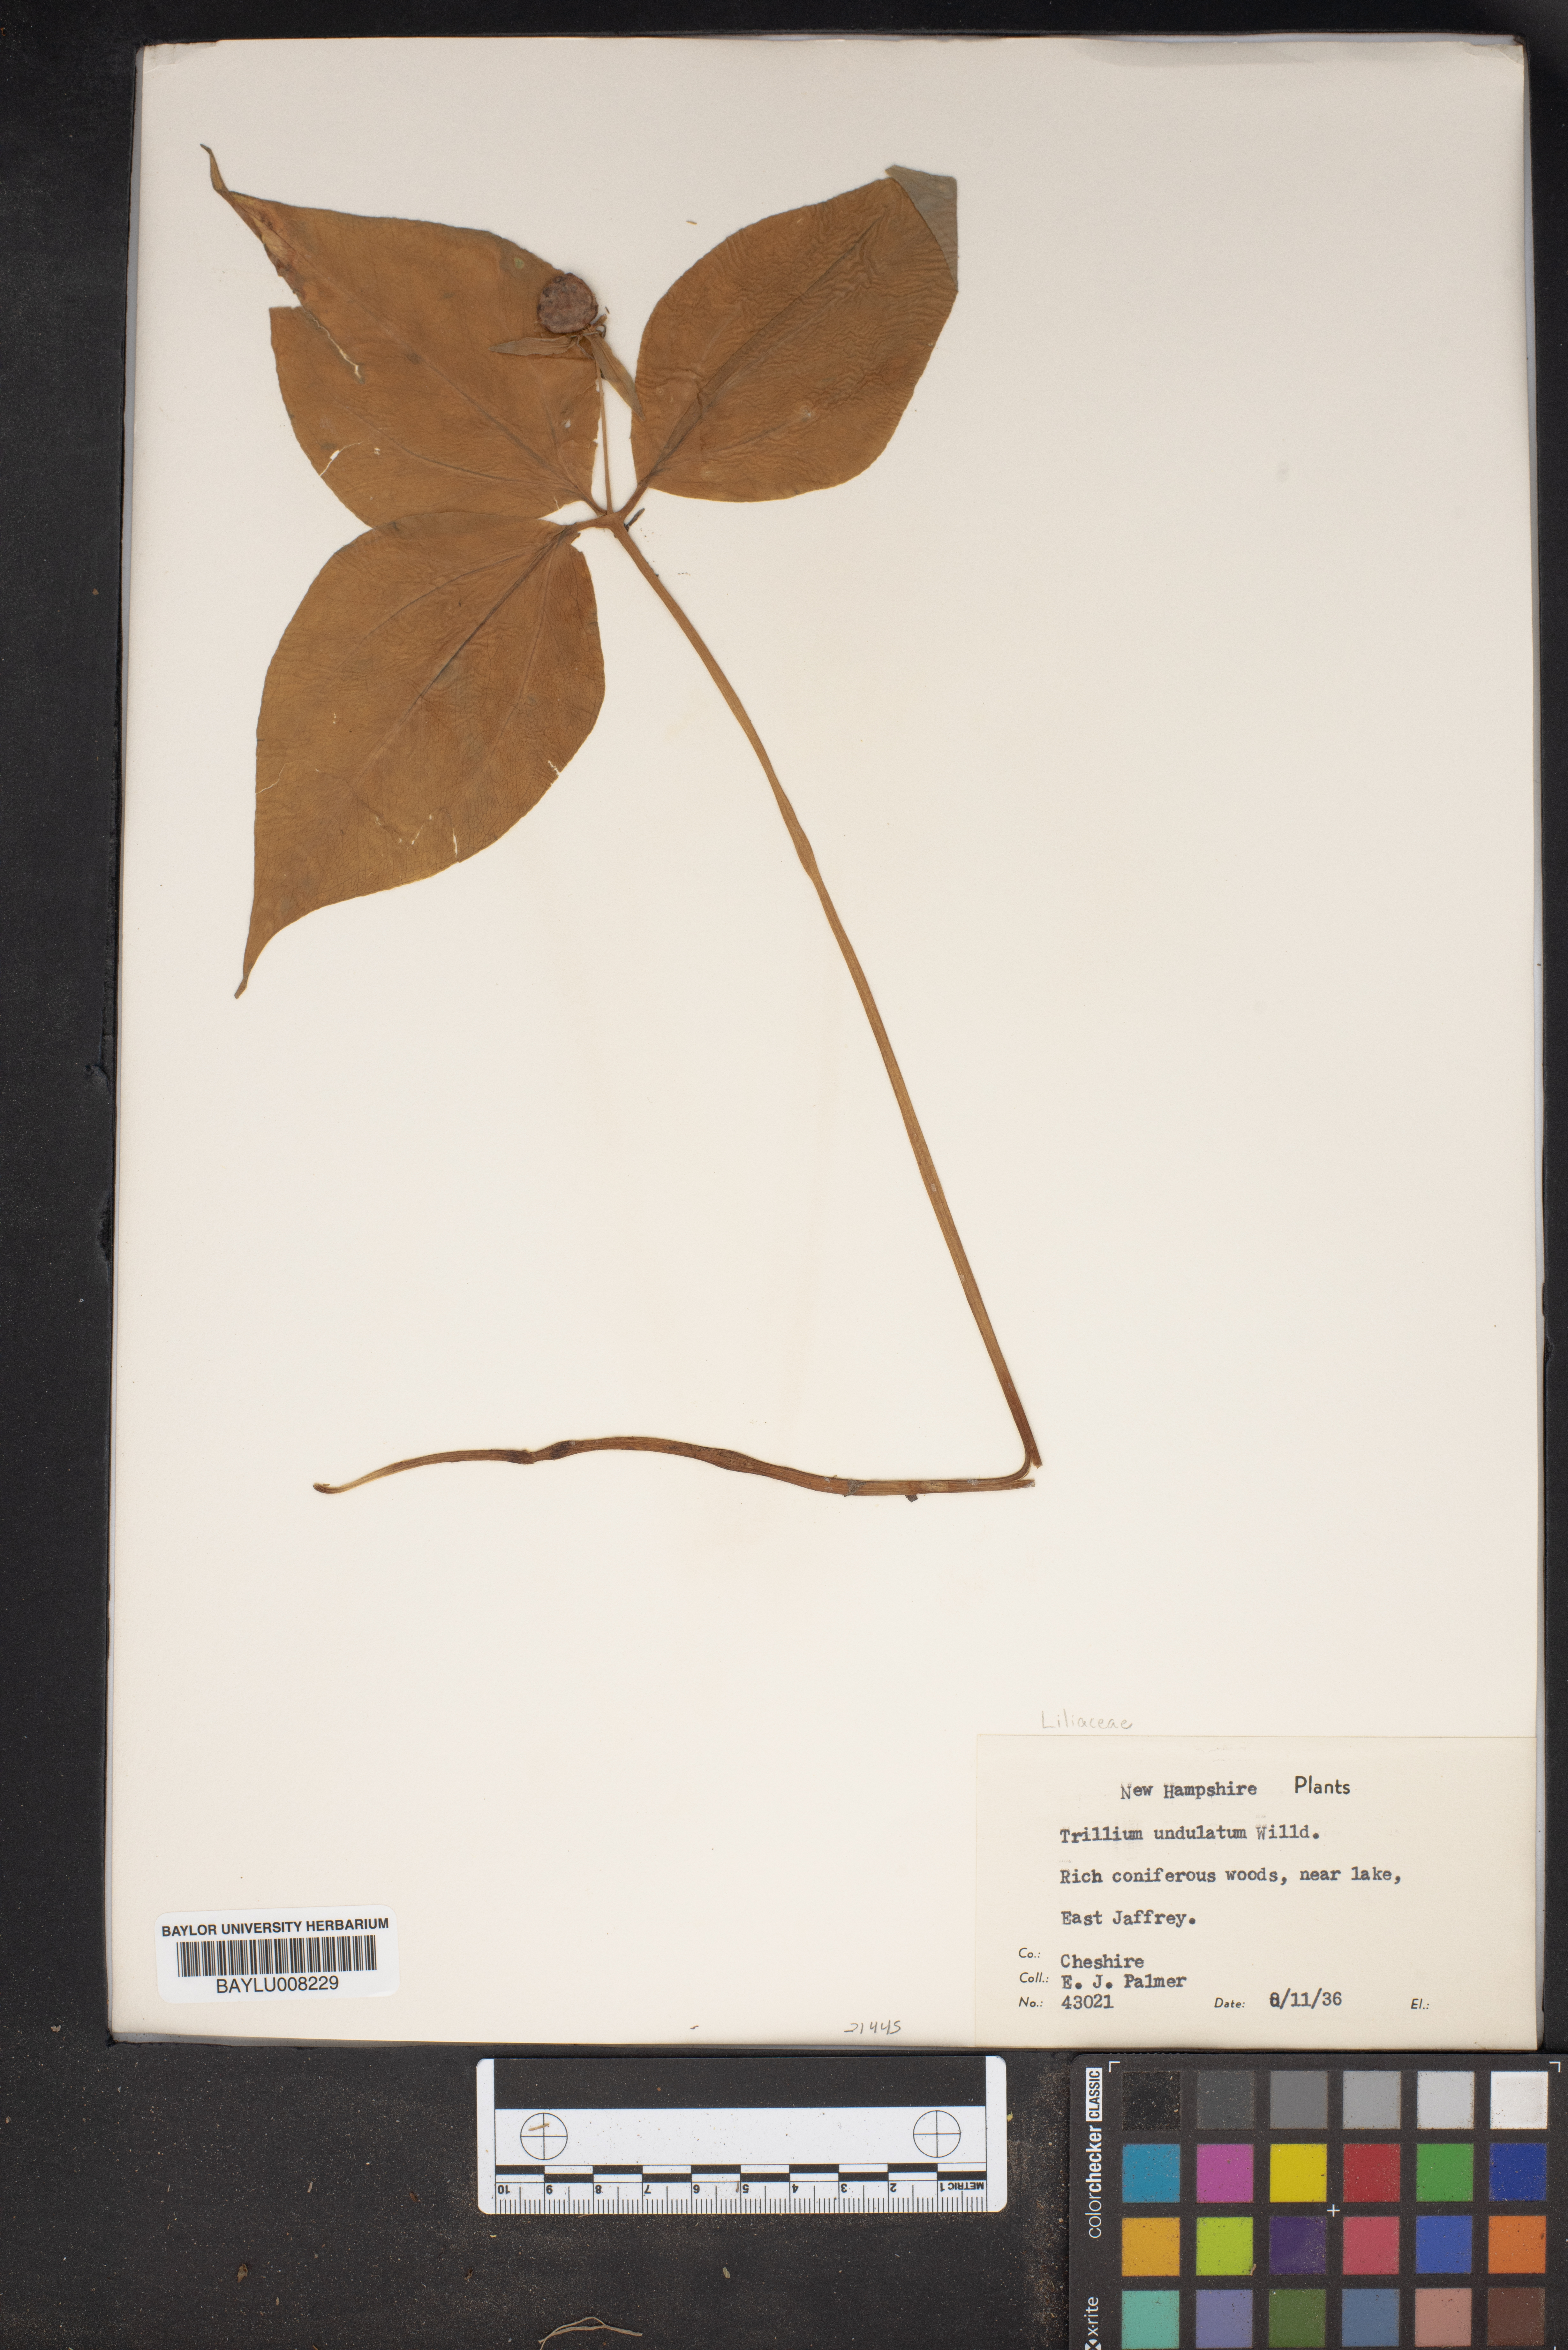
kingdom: Plantae
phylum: Tracheophyta
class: Liliopsida
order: Liliales
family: Melanthiaceae
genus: Trillium
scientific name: Trillium undulatum
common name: Paint trillium
